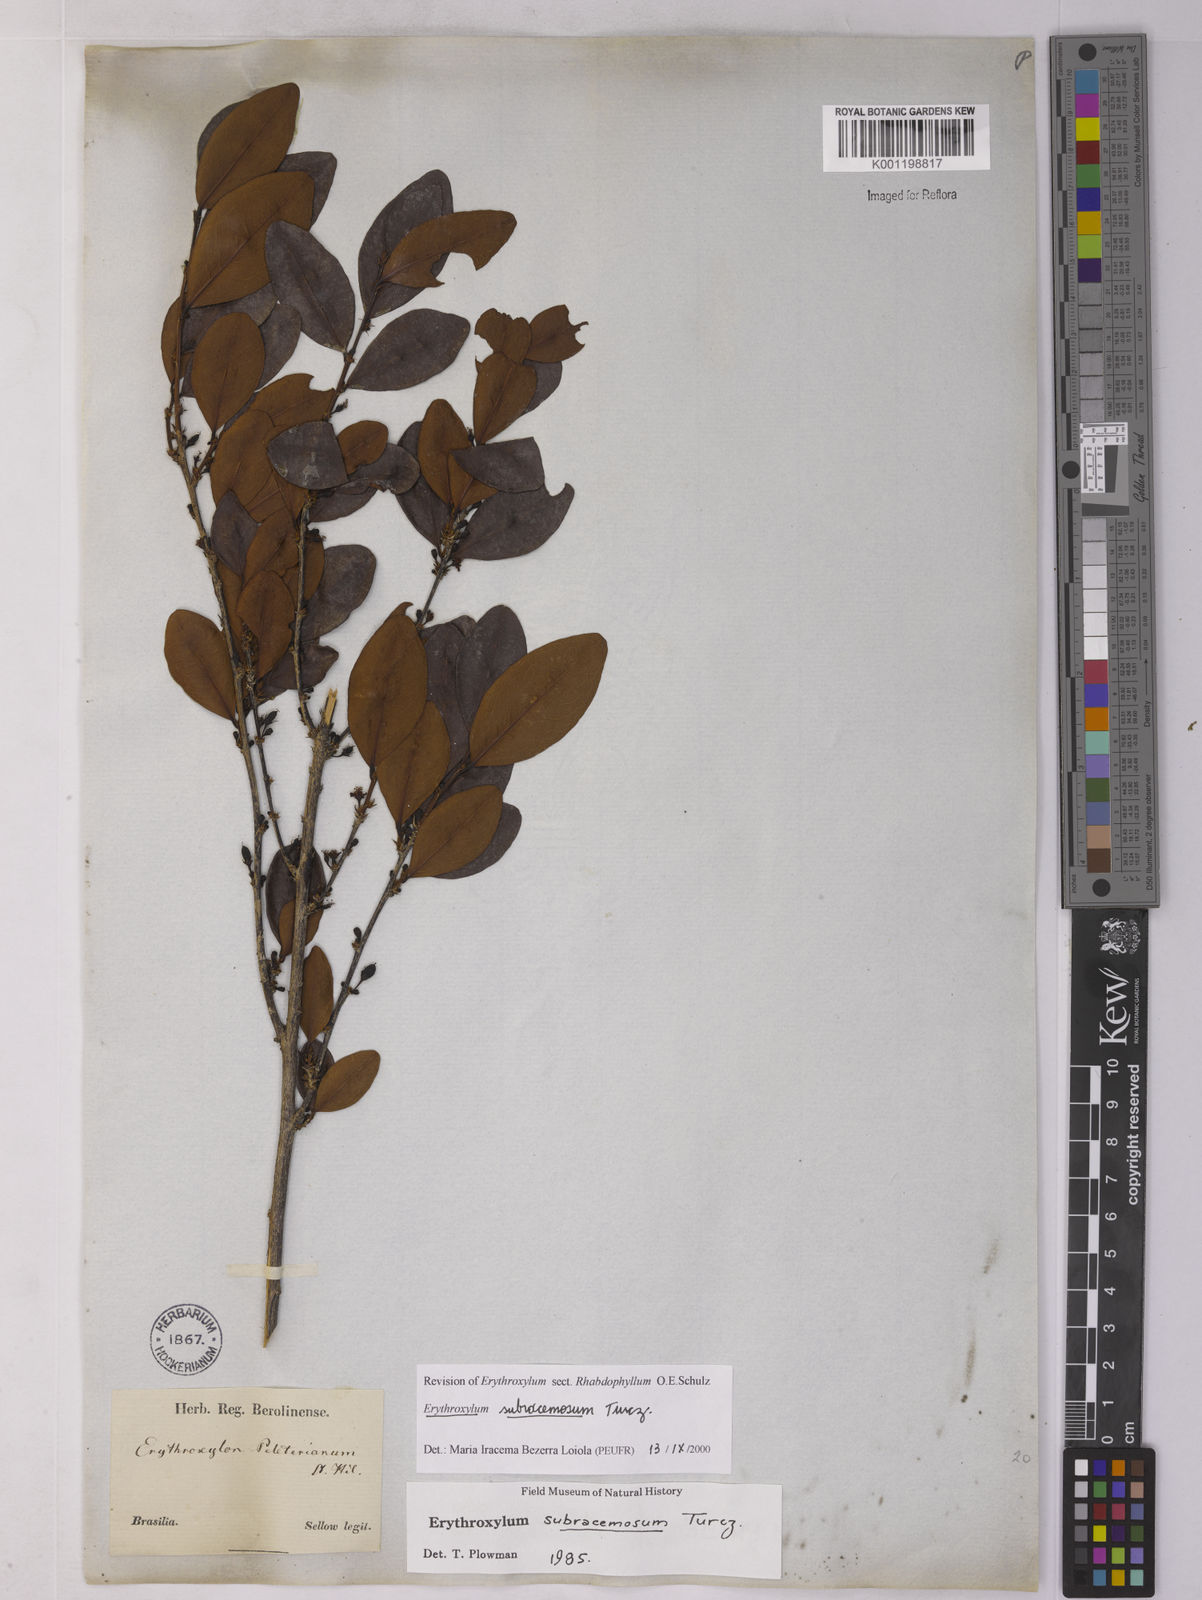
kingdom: Plantae
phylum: Tracheophyta
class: Magnoliopsida
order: Malpighiales
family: Erythroxylaceae
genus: Erythroxylum
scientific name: Erythroxylum subracemosum
